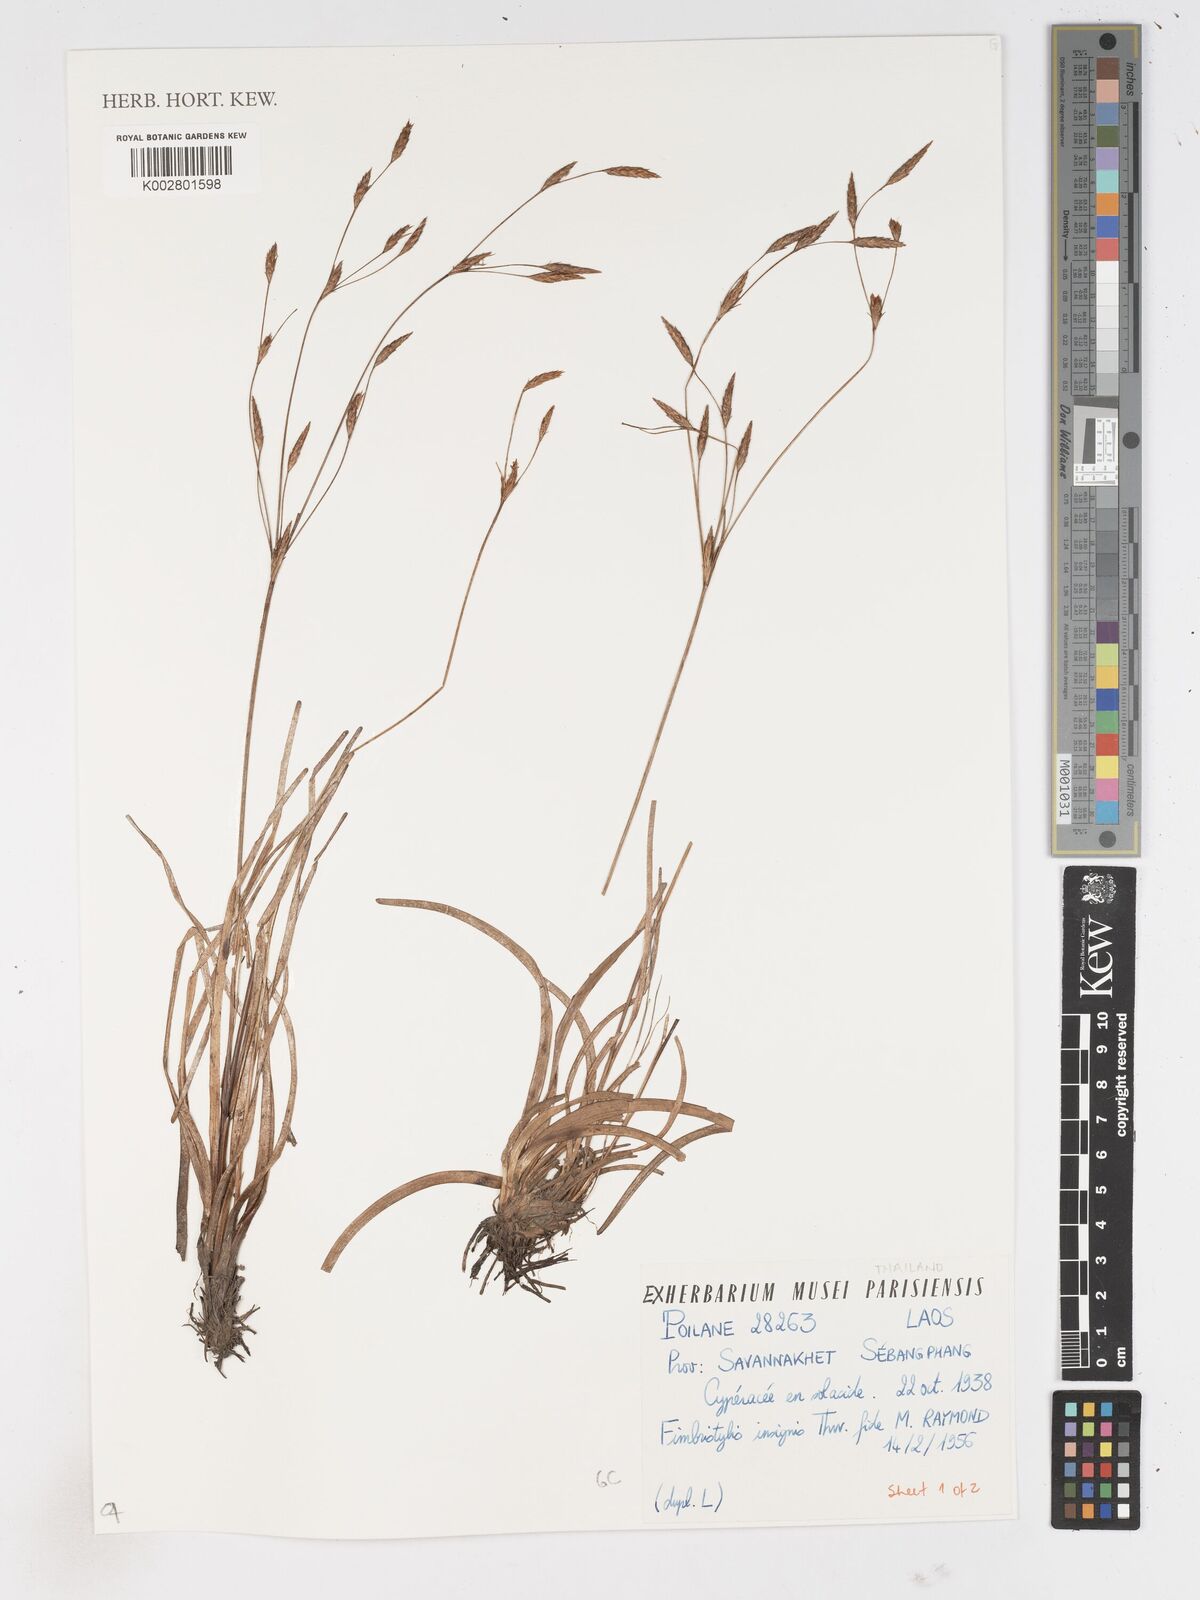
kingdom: Plantae
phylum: Tracheophyta
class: Liliopsida
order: Poales
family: Cyperaceae
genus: Fimbristylis
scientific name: Fimbristylis insignis
